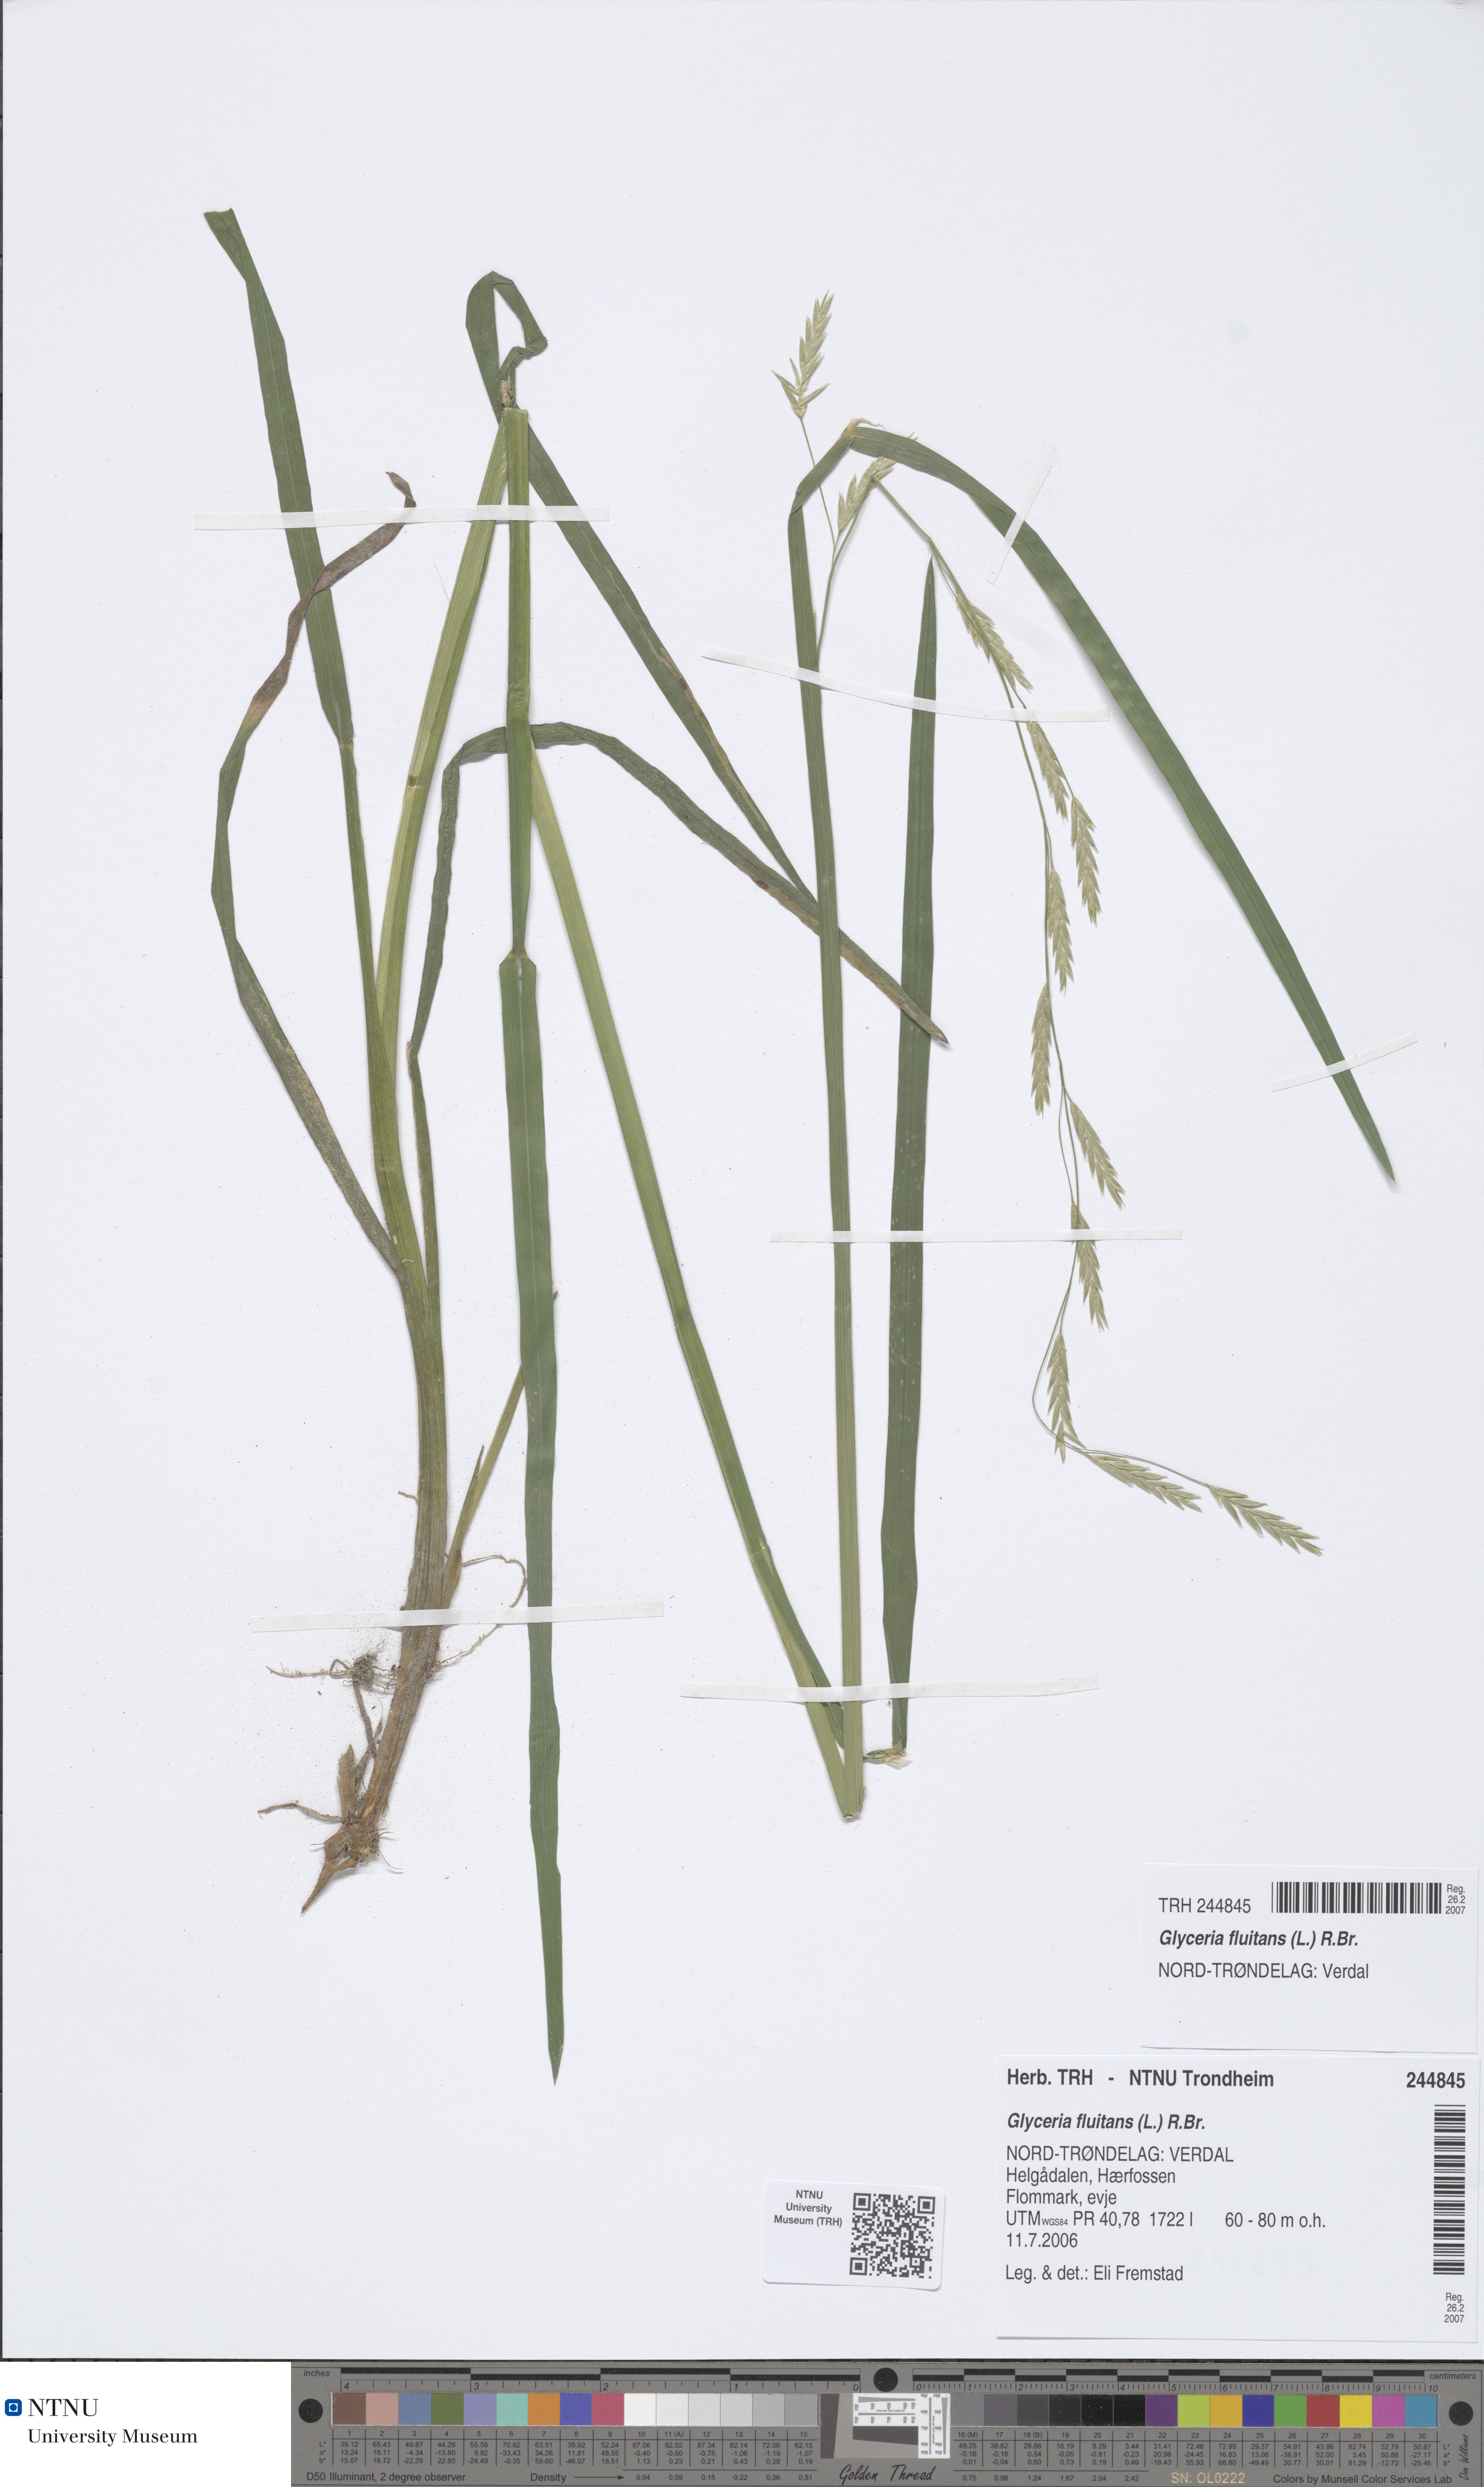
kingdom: Plantae
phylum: Tracheophyta
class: Liliopsida
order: Poales
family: Poaceae
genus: Glyceria
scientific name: Glyceria fluitans
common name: Floating sweet-grass
